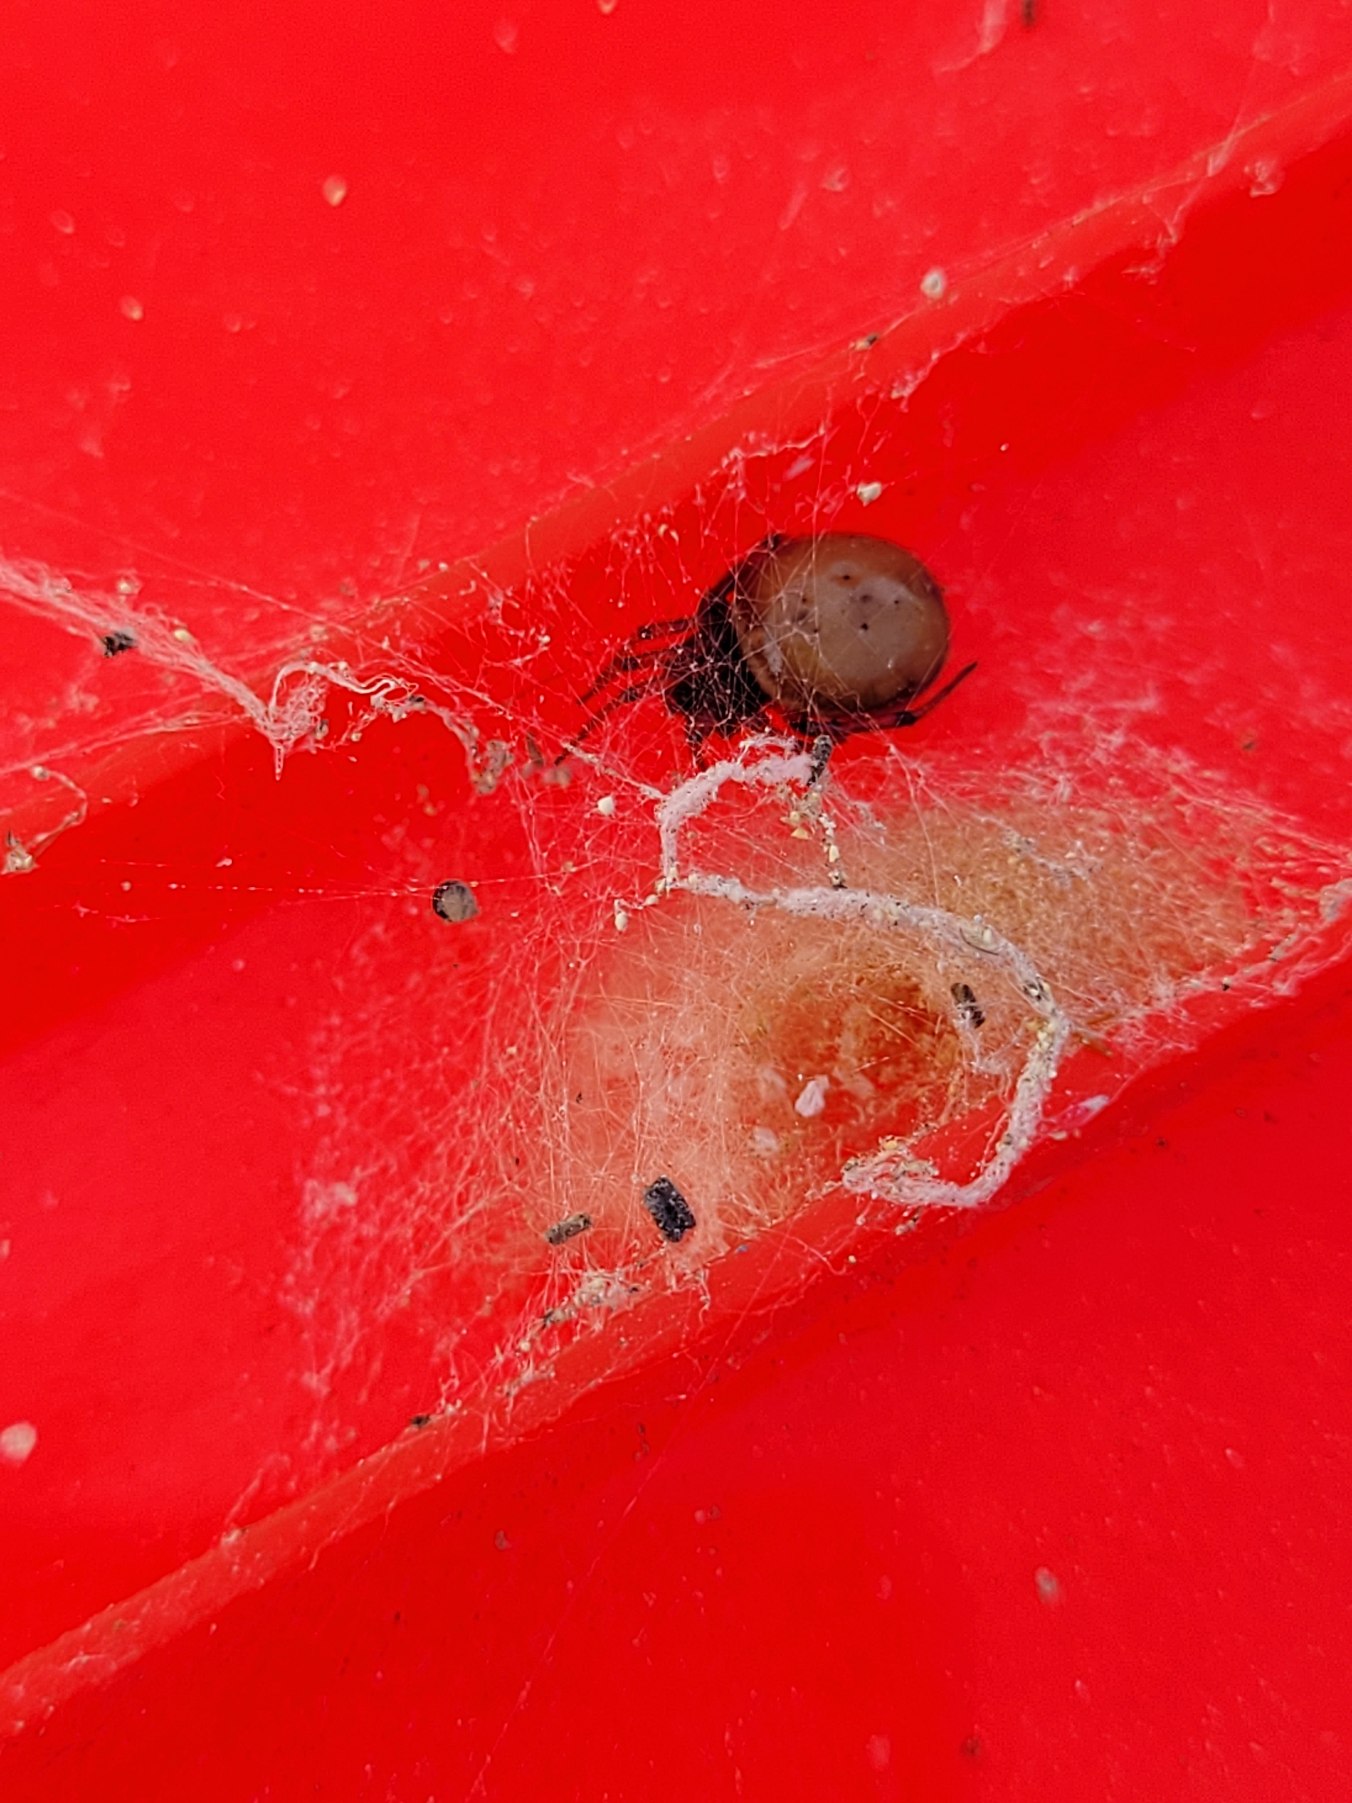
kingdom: Animalia
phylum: Arthropoda
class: Arachnida
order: Araneae
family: Theridiidae
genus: Steatoda
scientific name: Steatoda bipunctata
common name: Fedtedderkop
